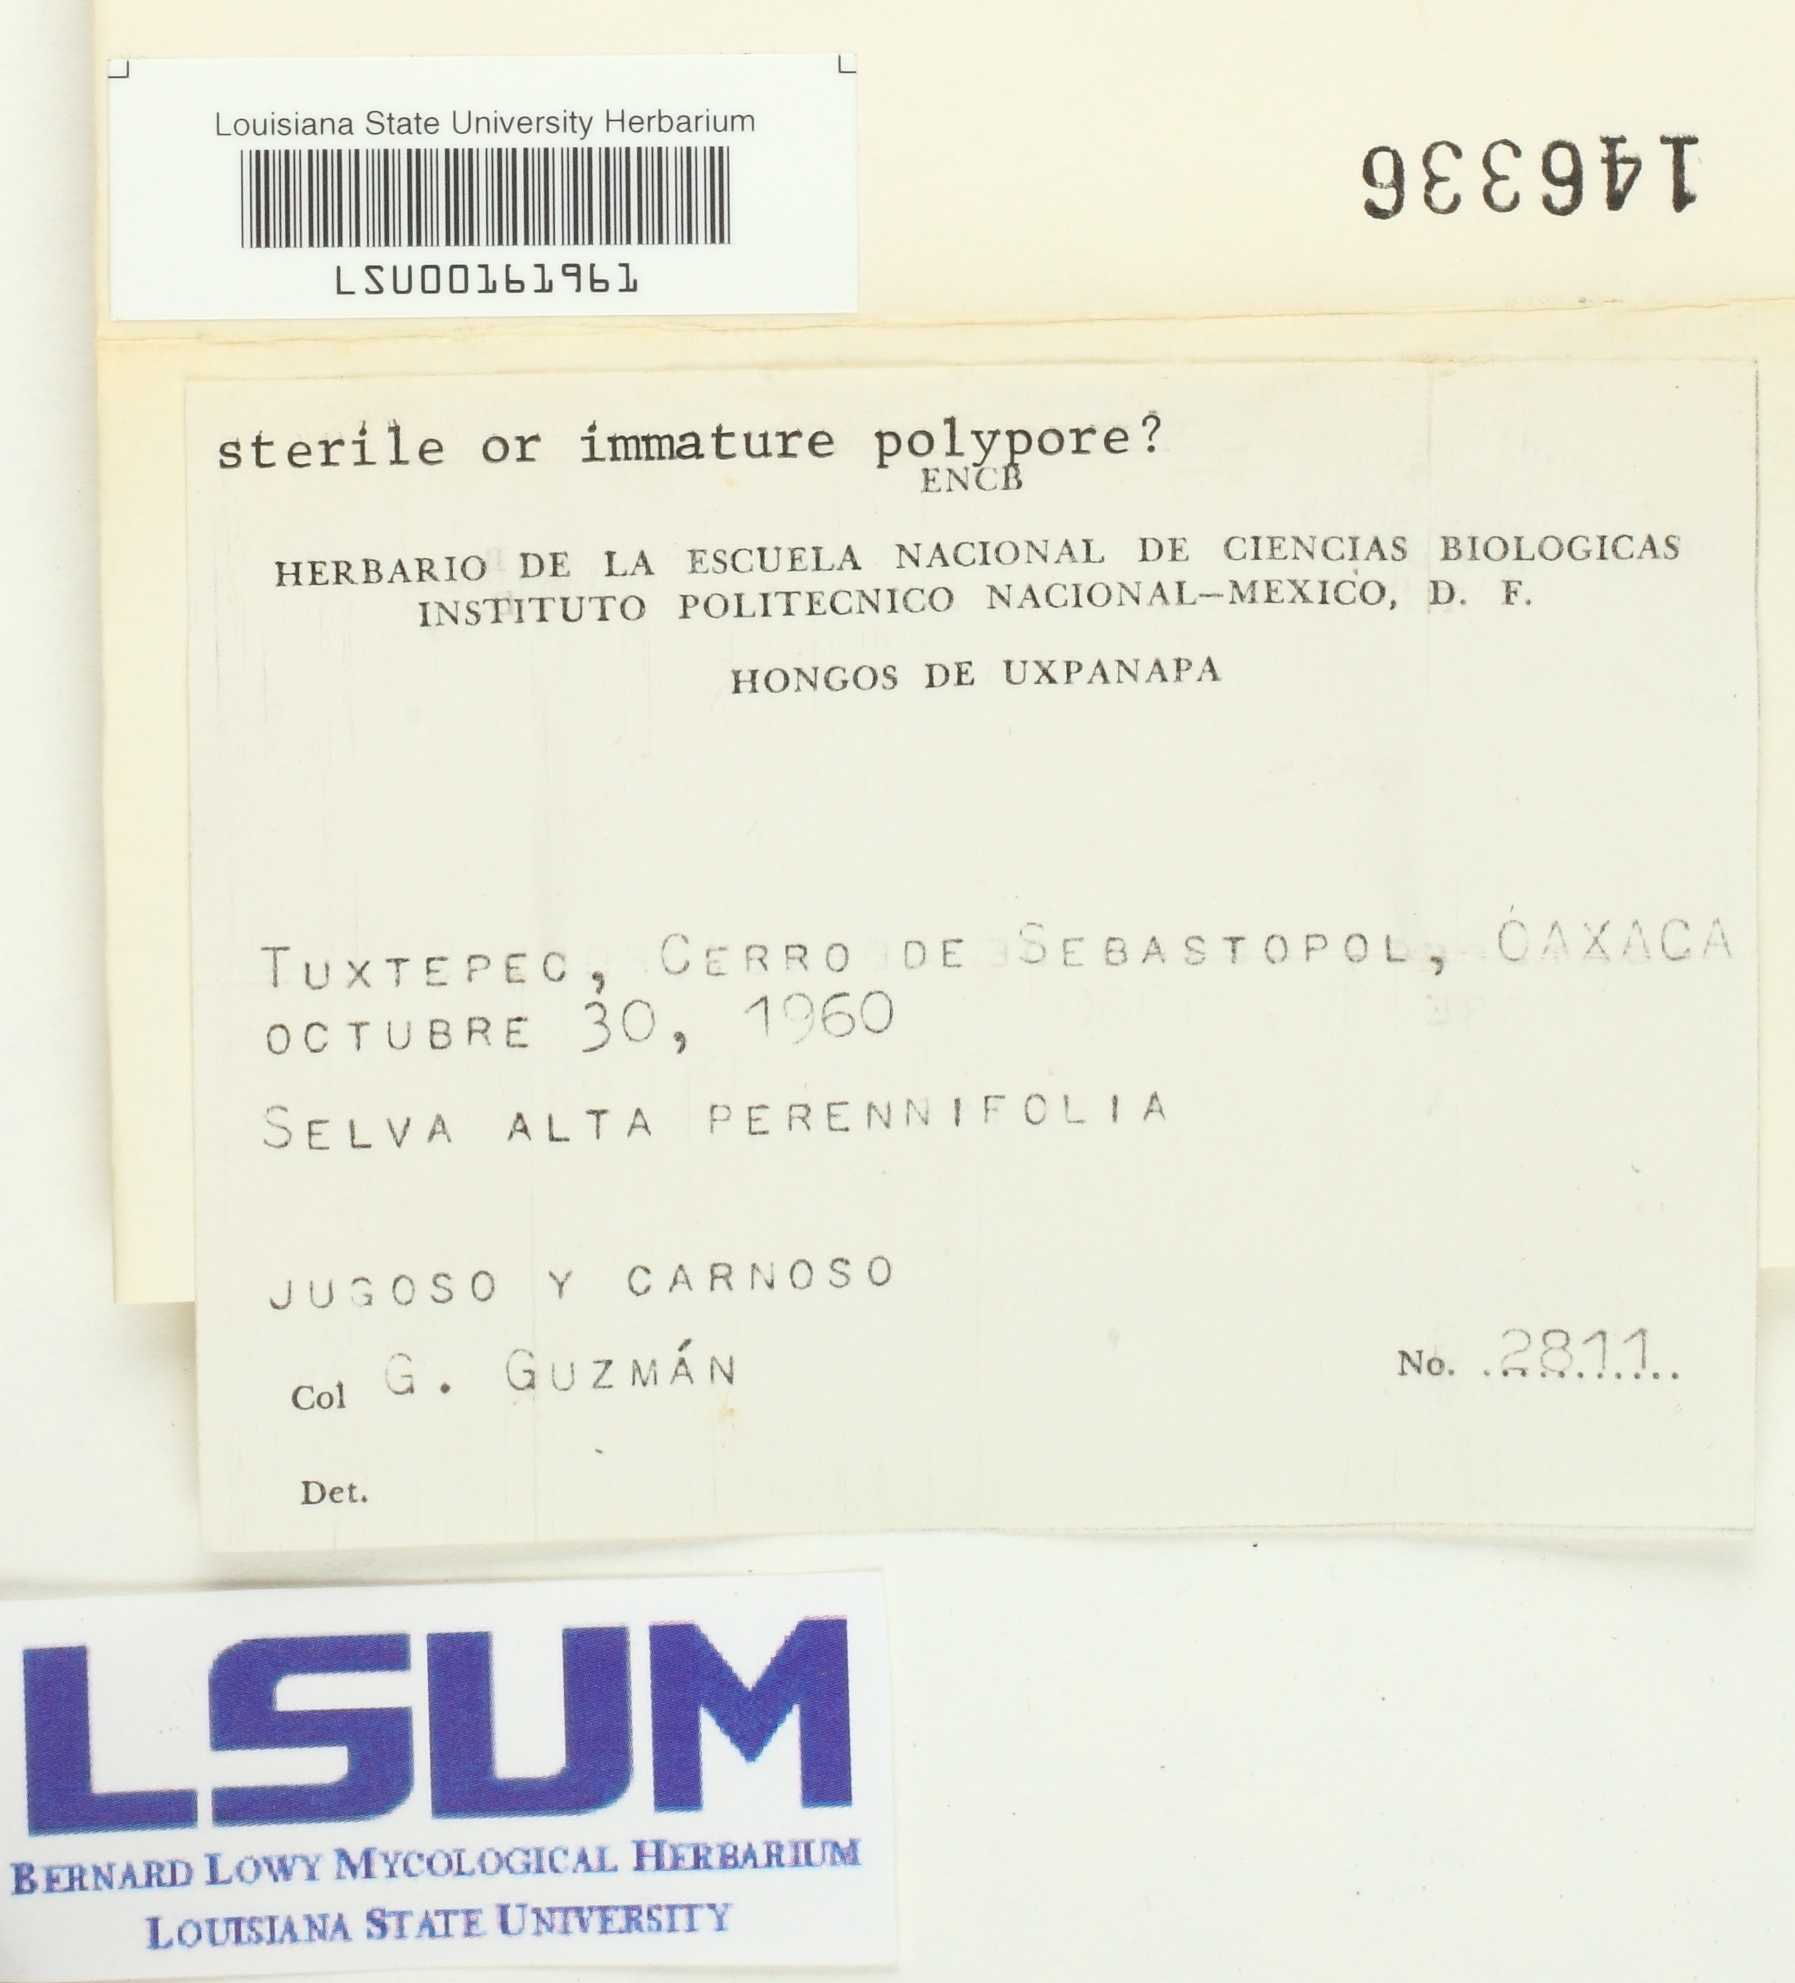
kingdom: Fungi
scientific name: Fungi
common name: Fungi
